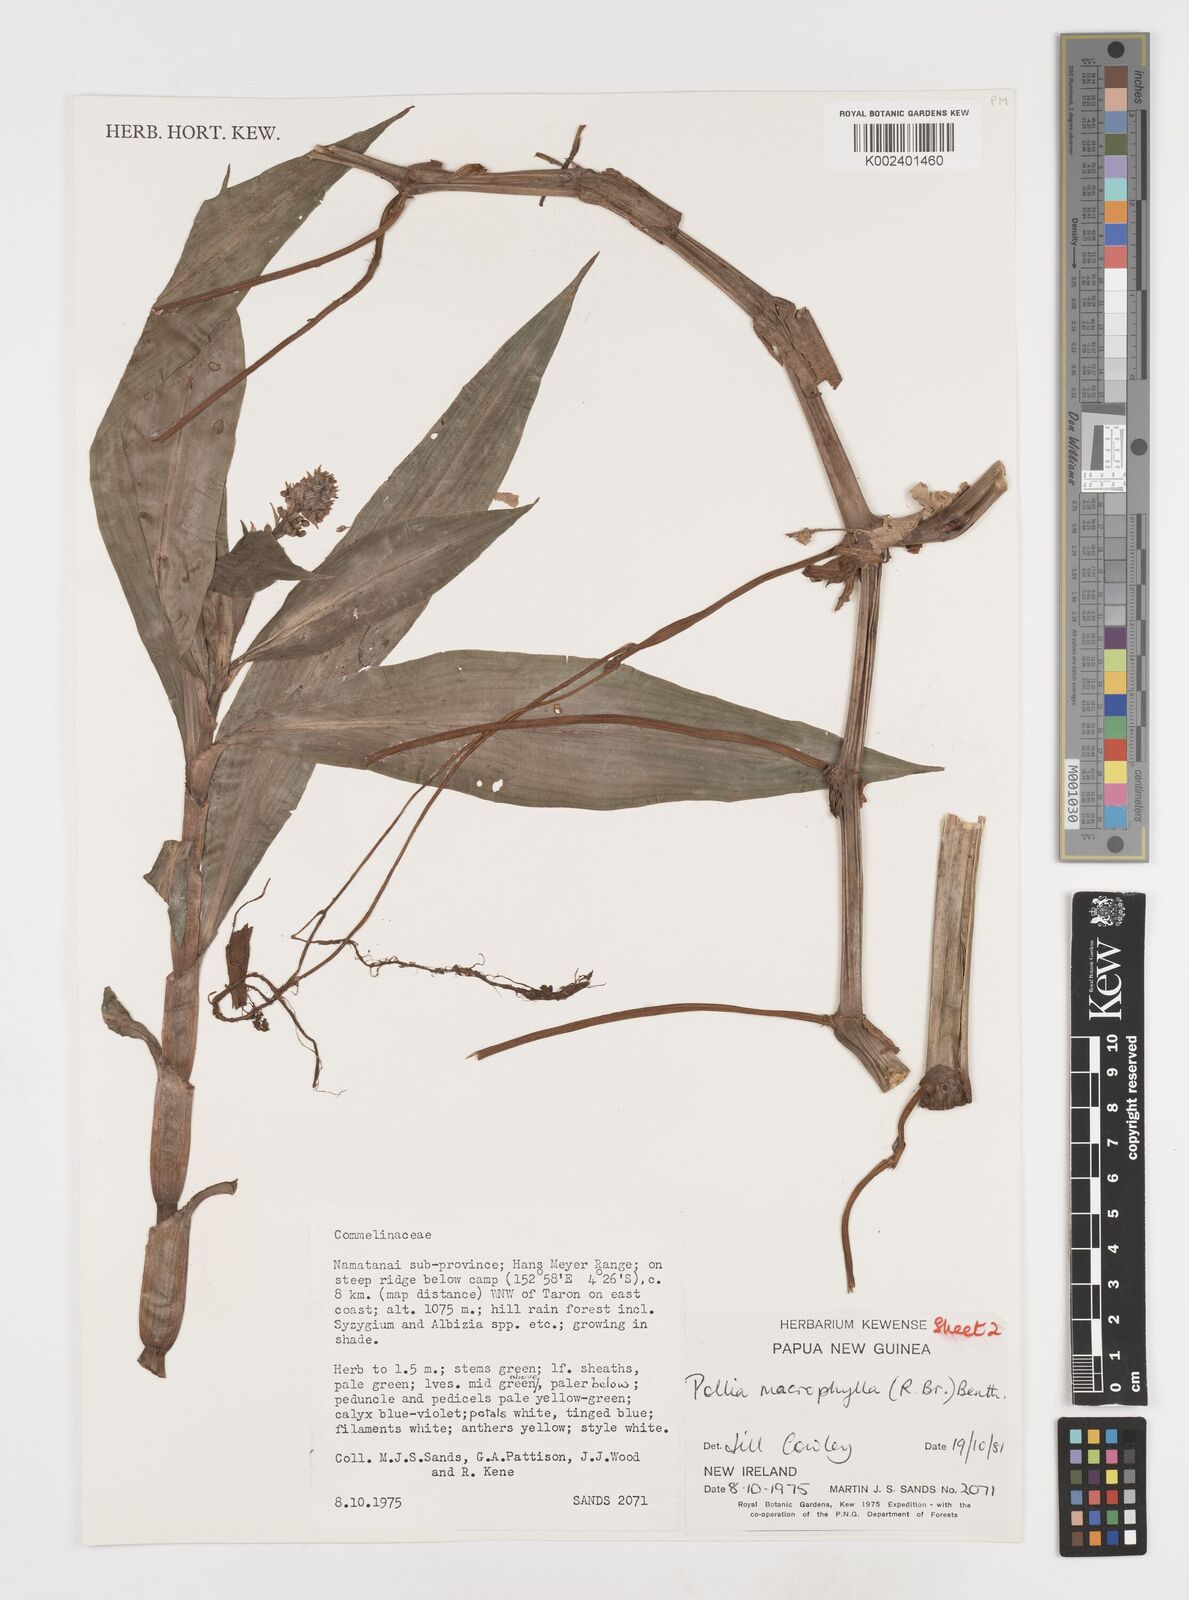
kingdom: Plantae
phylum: Tracheophyta
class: Liliopsida
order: Commelinales
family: Commelinaceae
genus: Pollia
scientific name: Pollia macrophylla
